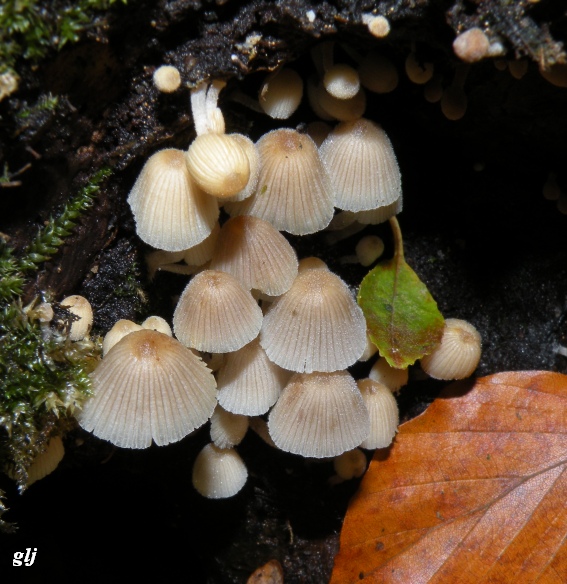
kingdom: Fungi
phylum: Basidiomycota
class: Agaricomycetes
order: Agaricales
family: Psathyrellaceae
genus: Coprinellus
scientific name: Coprinellus disseminatus
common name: bredsået blækhat
